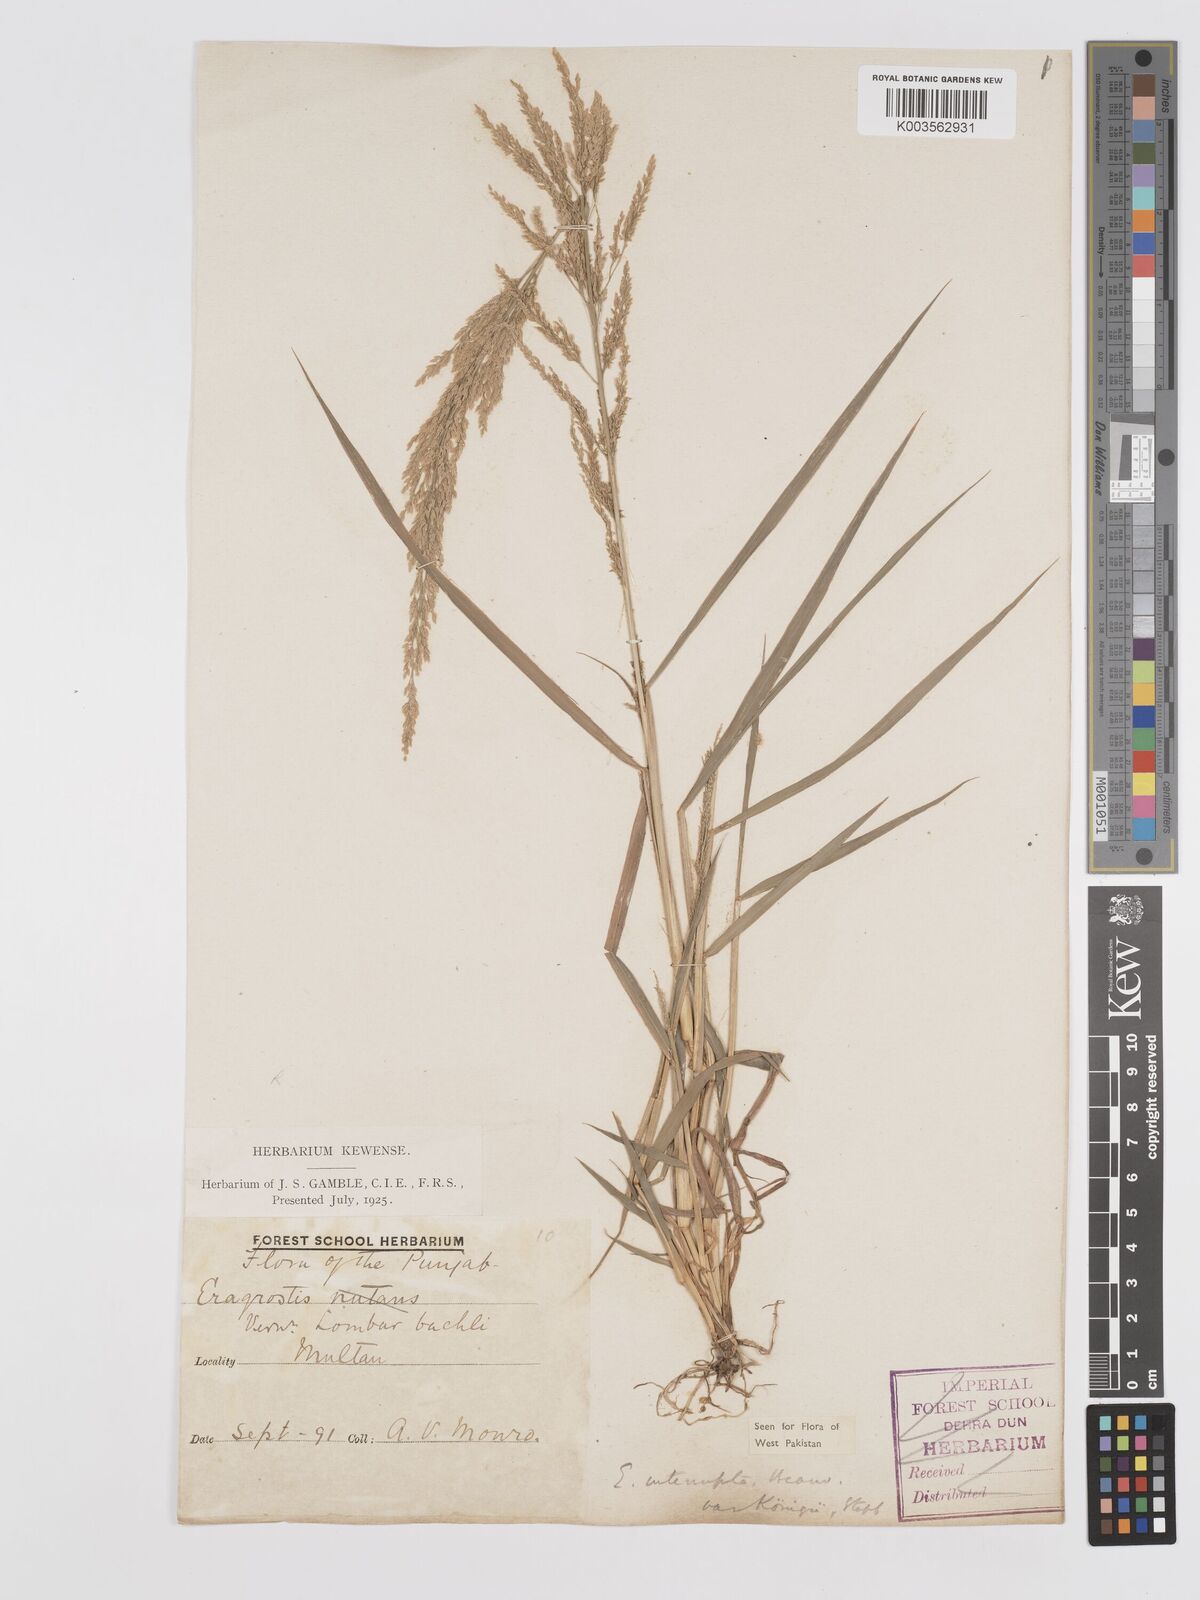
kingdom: Plantae
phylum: Tracheophyta
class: Liliopsida
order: Poales
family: Poaceae
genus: Eragrostis
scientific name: Eragrostis japonica
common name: Pond lovegrass
